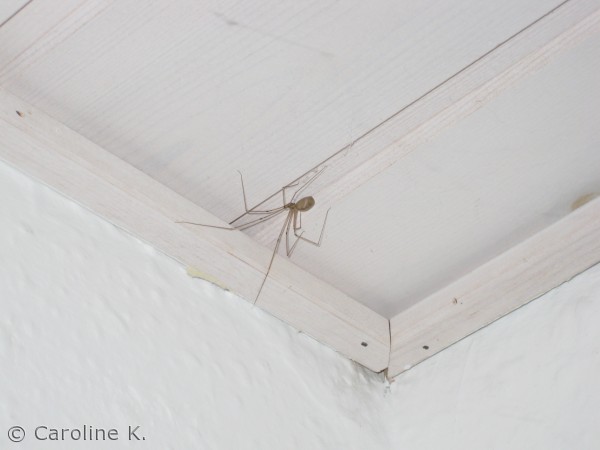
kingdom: Animalia
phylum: Arthropoda
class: Arachnida
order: Araneae
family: Pholcidae
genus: Pholcus
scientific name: Pholcus phalangioides
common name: Mejeredderkop
